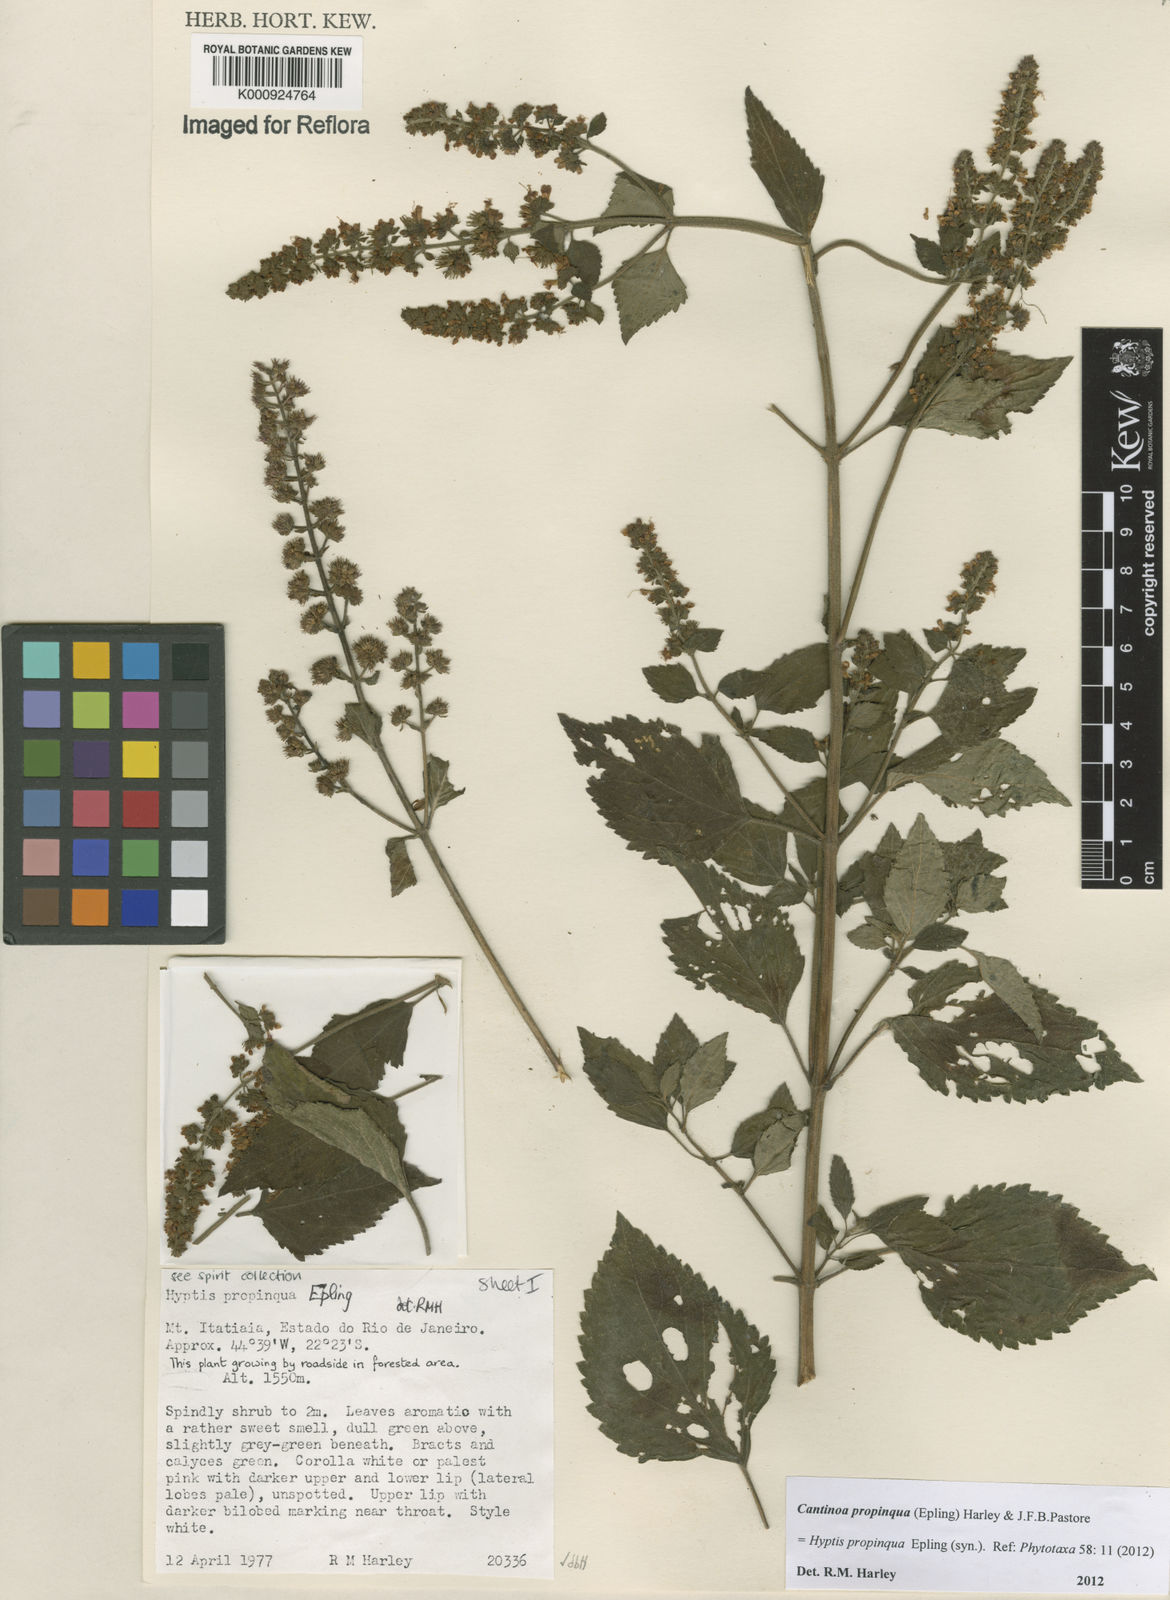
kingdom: Plantae
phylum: Tracheophyta
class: Magnoliopsida
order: Lamiales
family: Lamiaceae
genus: Cantinoa
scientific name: Cantinoa propinqua
